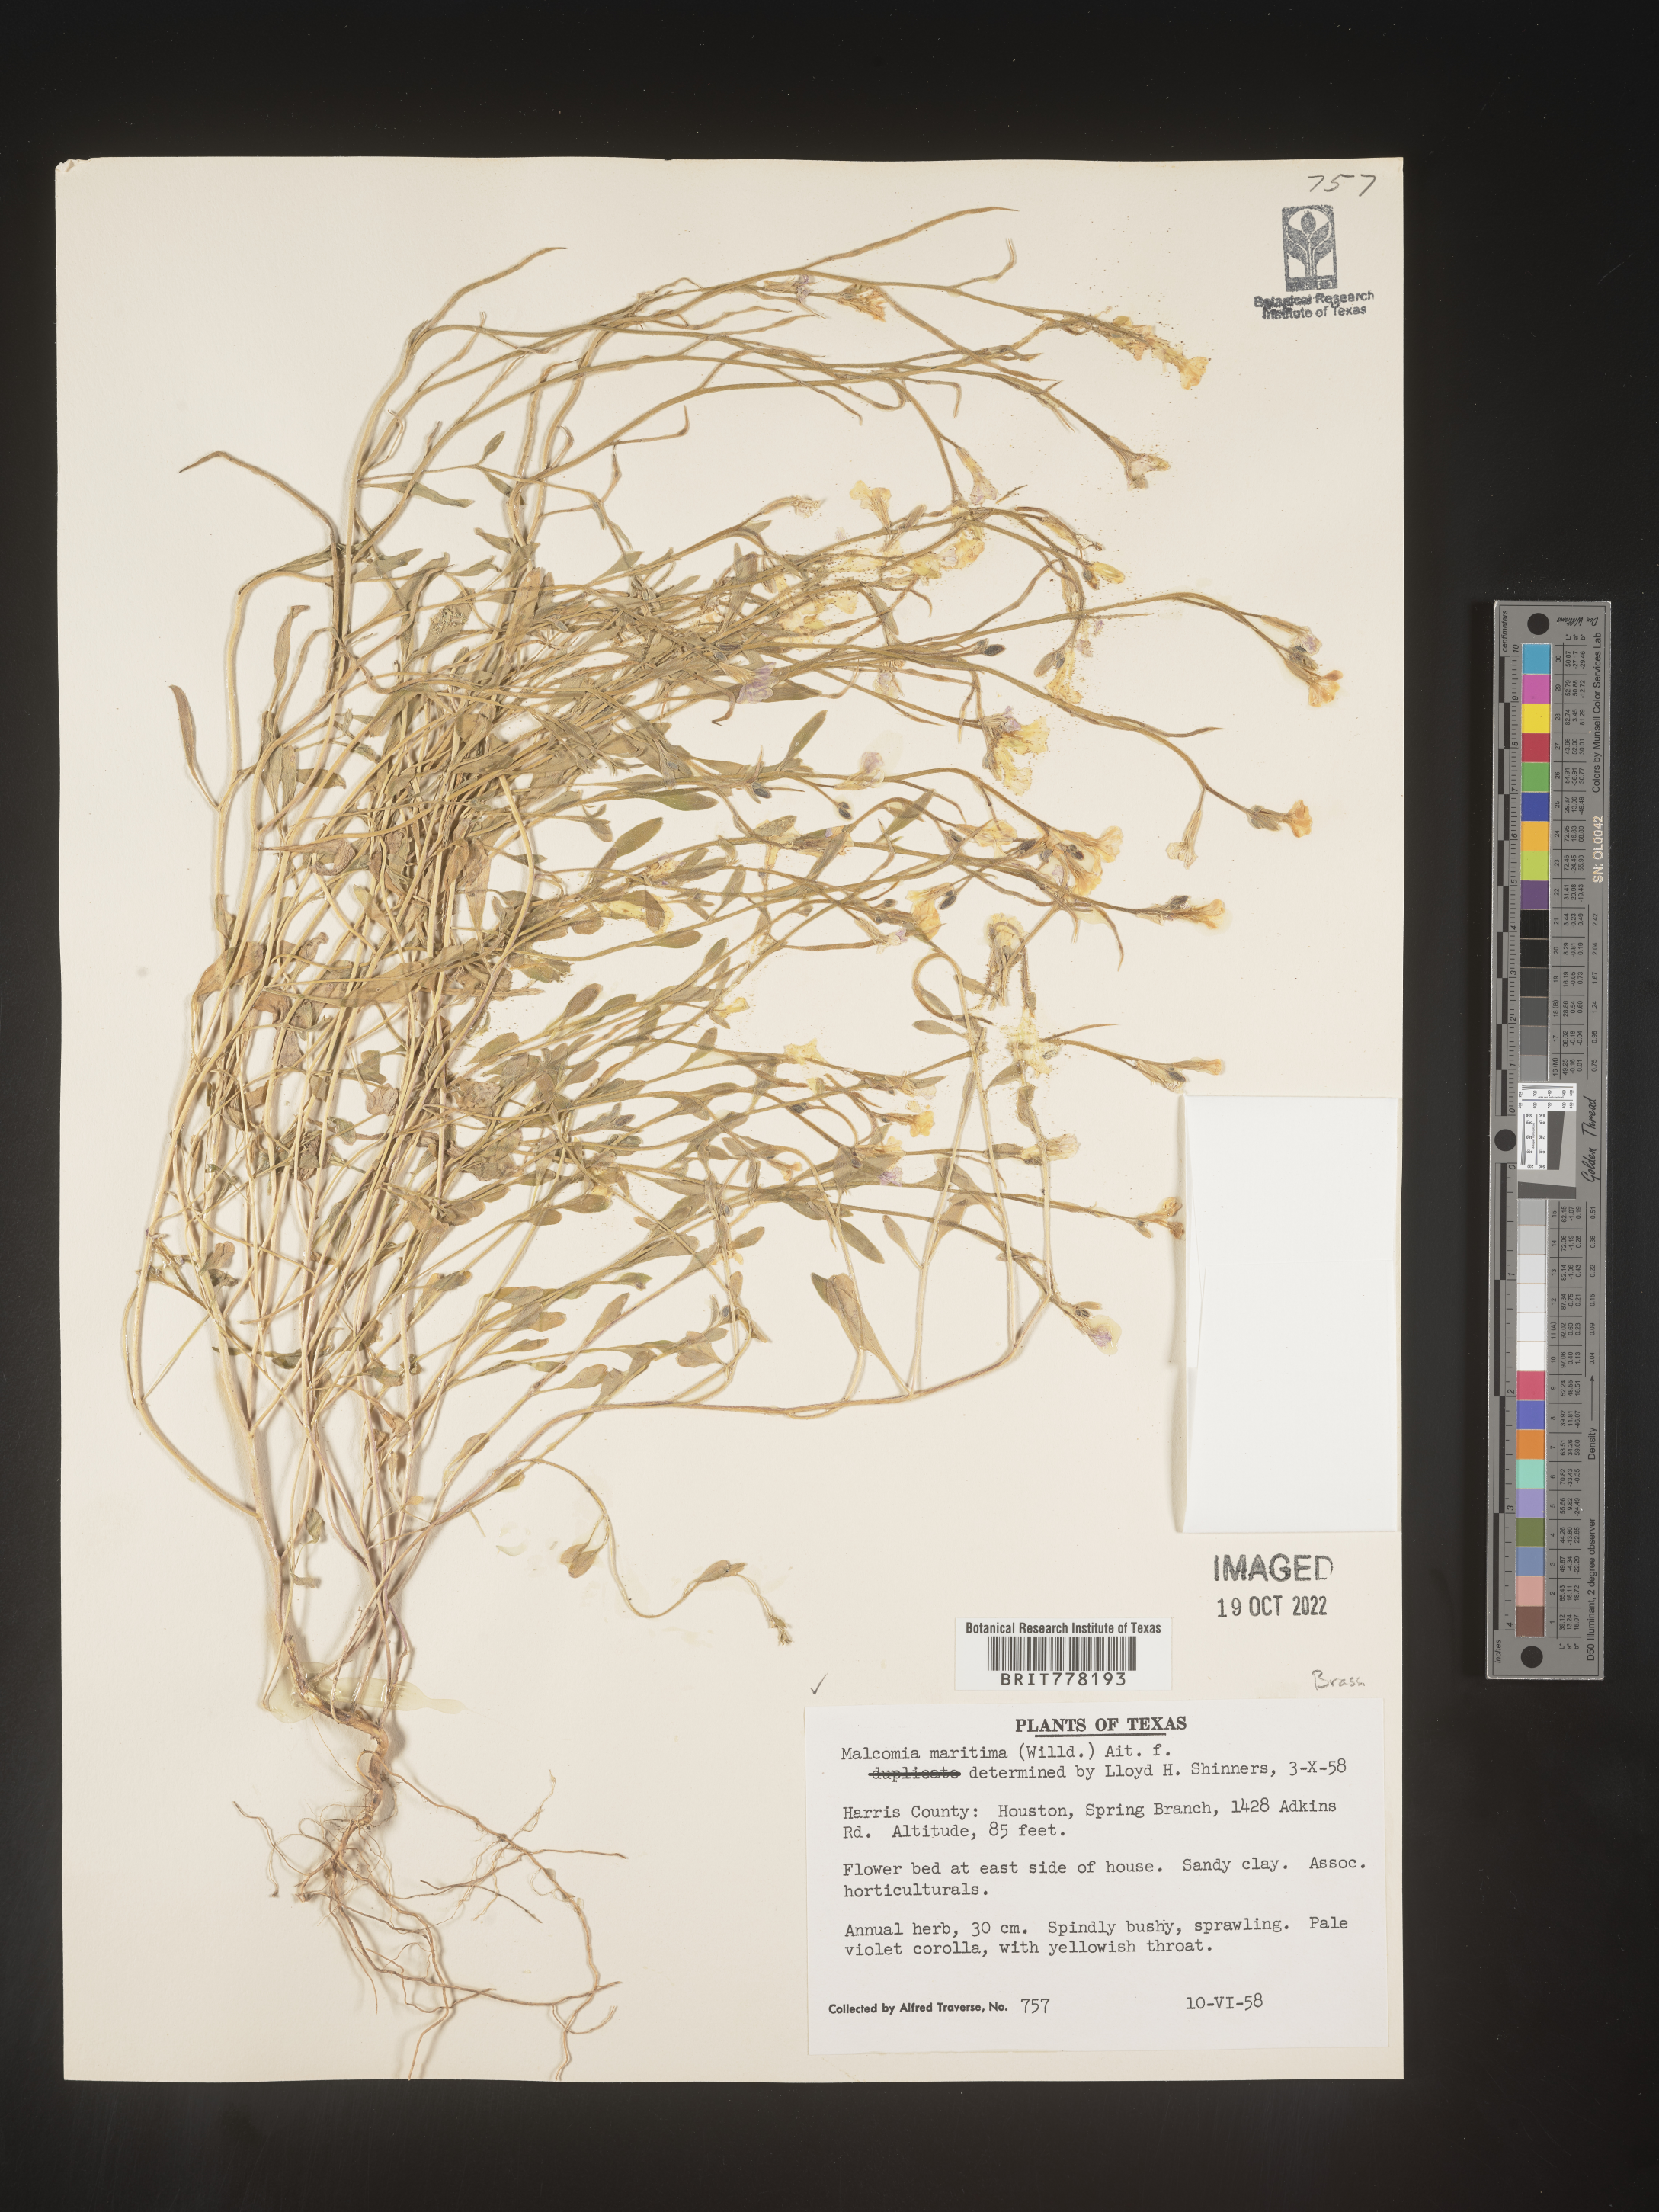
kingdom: Plantae
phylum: Tracheophyta
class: Magnoliopsida
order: Brassicales
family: Brassicaceae
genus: Malcolmia
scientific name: Malcolmia maritima
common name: Virginia stock
